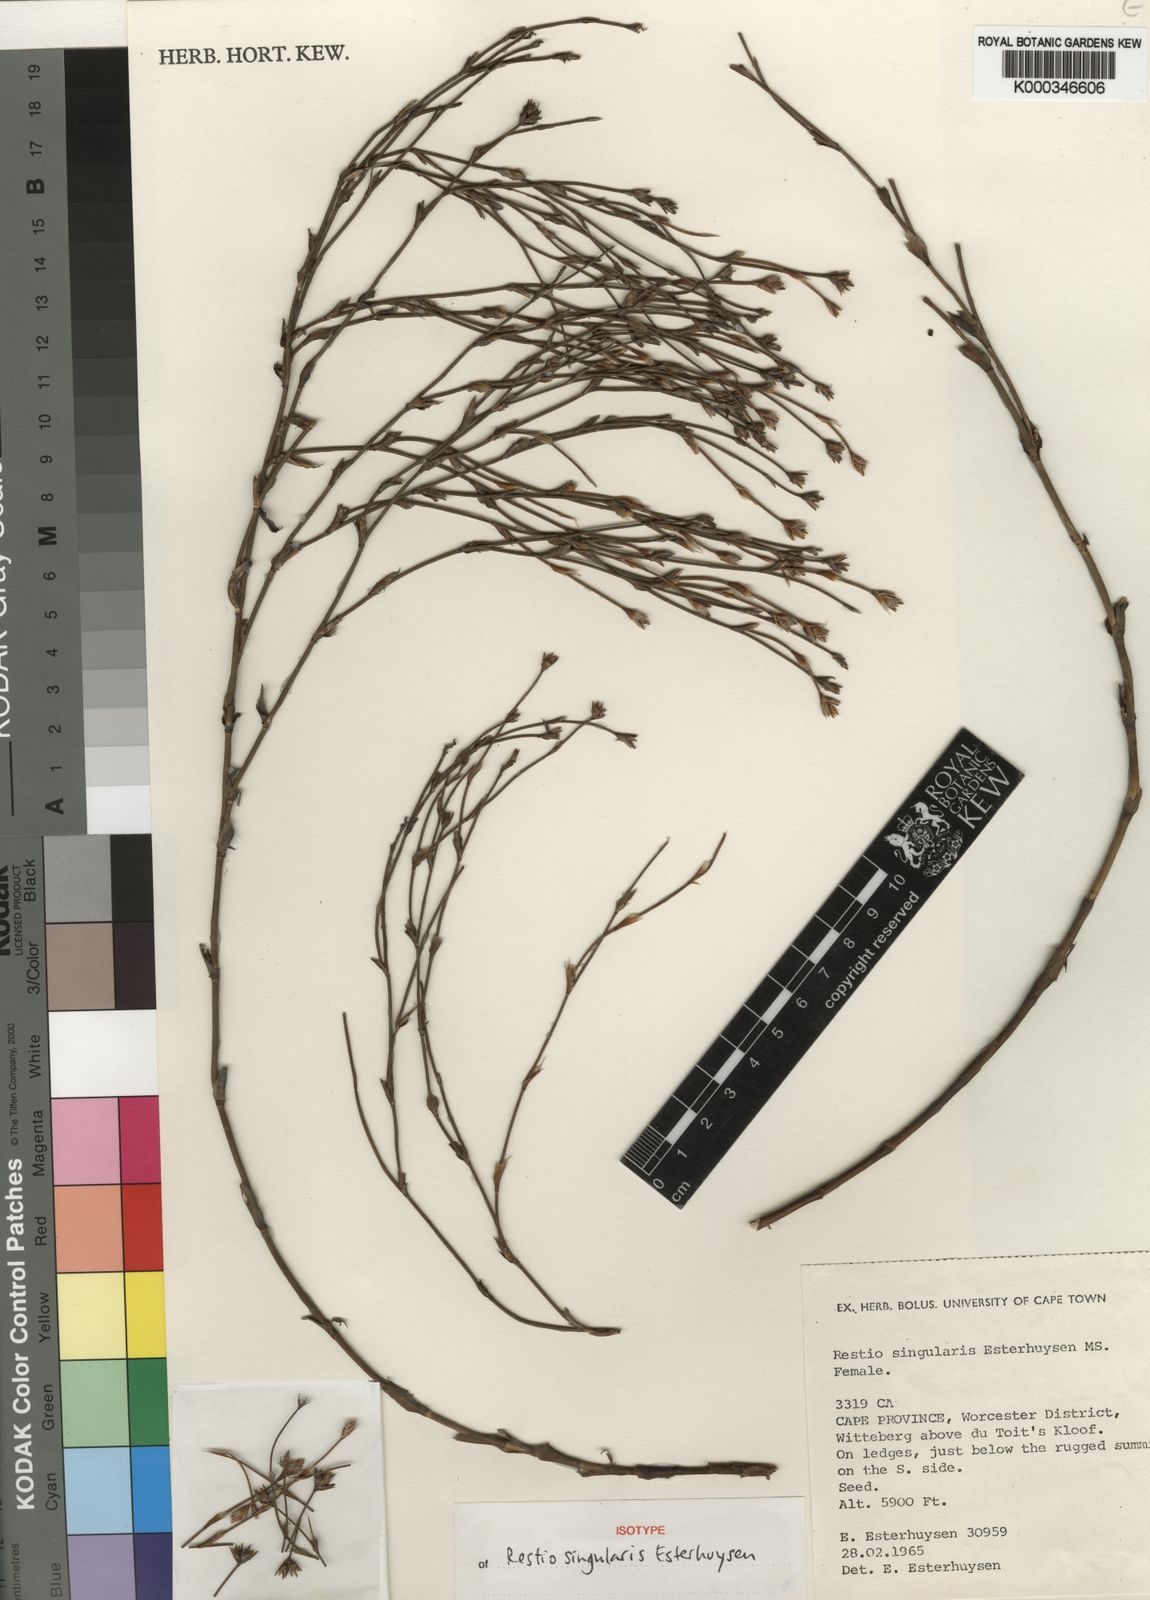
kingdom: Plantae
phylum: Tracheophyta
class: Liliopsida
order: Poales
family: Restionaceae
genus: Restio
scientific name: Restio singularis
